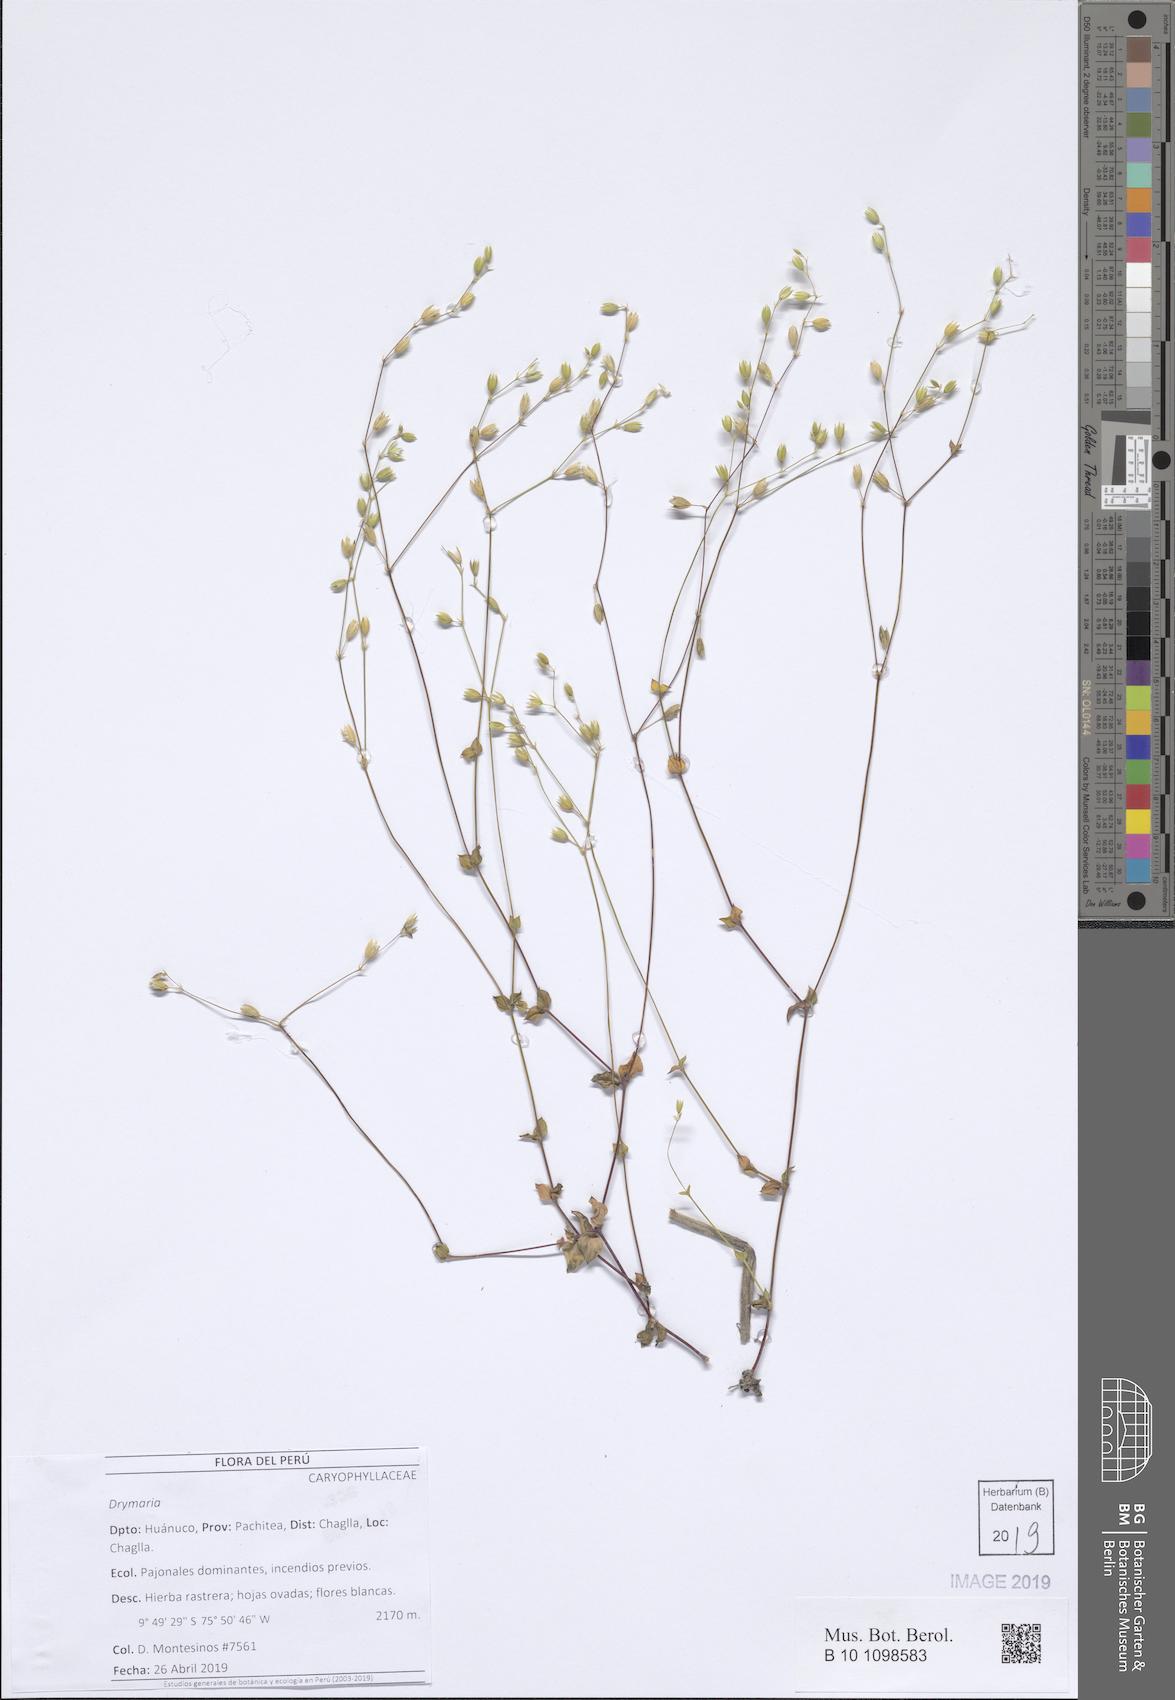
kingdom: Plantae
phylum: Tracheophyta
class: Magnoliopsida
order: Caryophyllales
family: Caryophyllaceae
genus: Drymaria
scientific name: Drymaria
